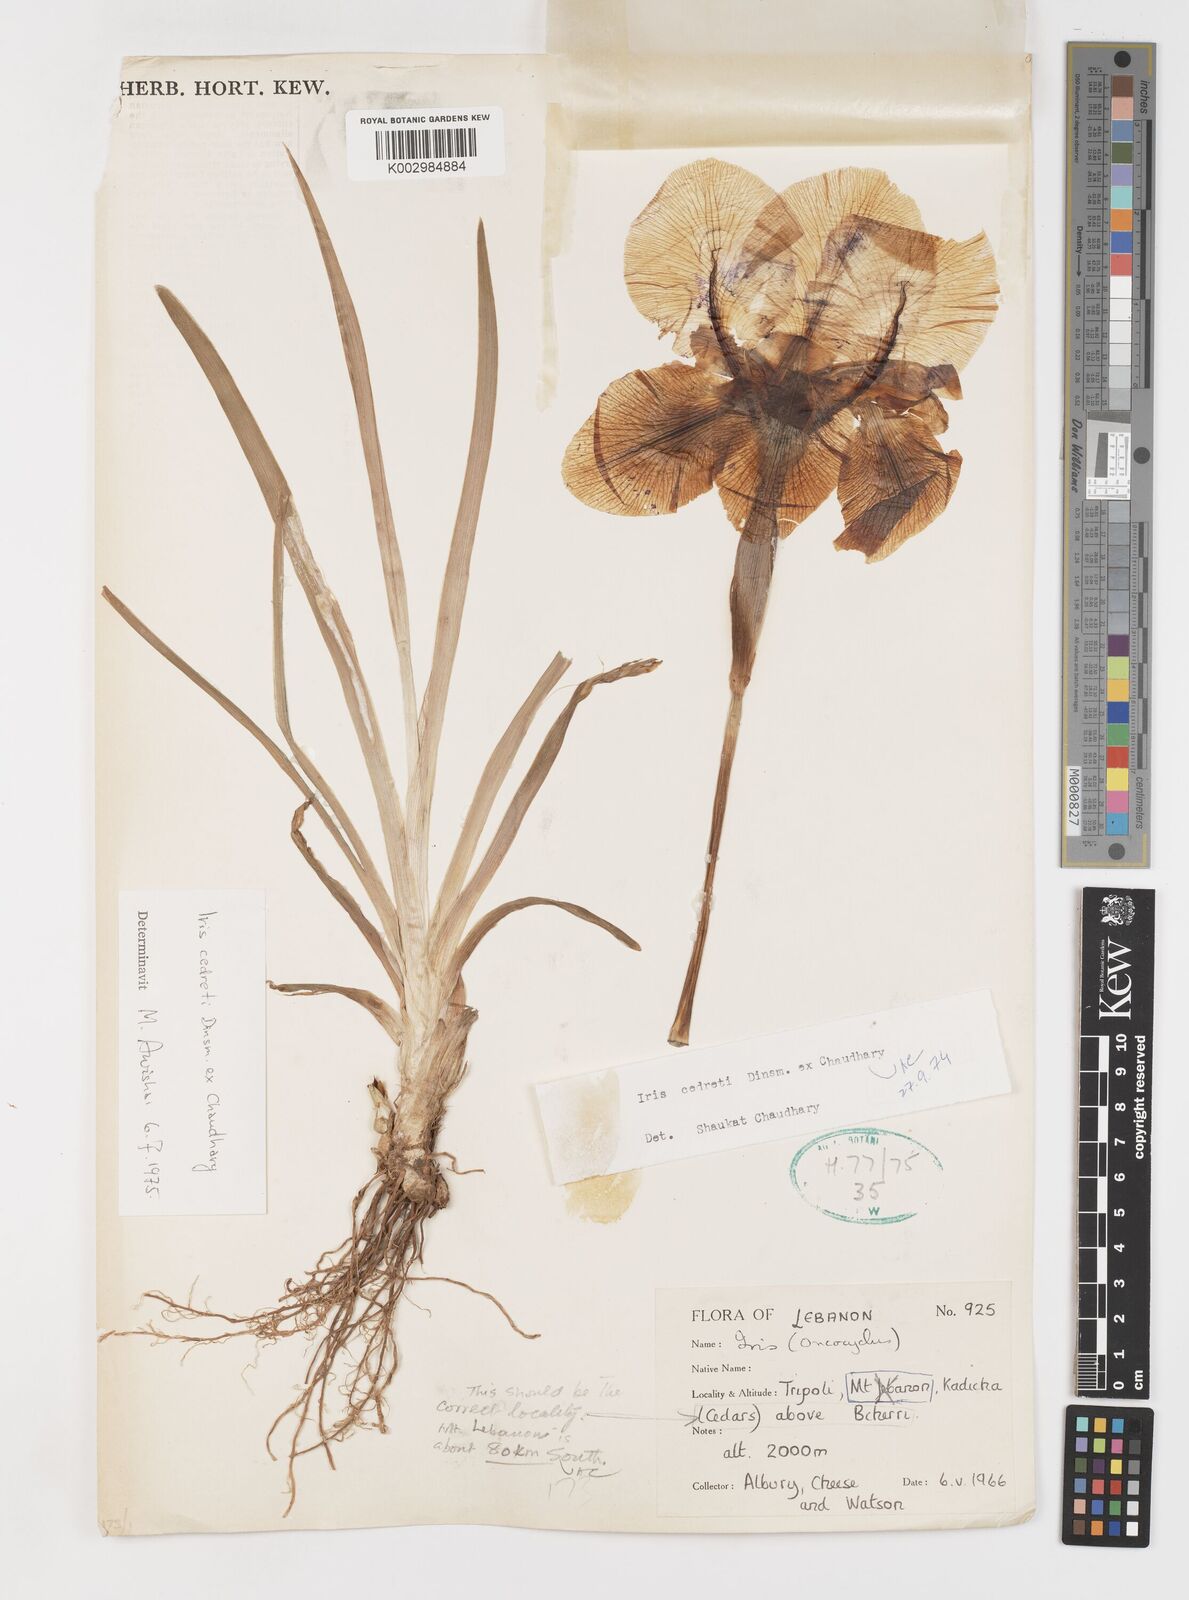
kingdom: Plantae
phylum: Tracheophyta
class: Liliopsida
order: Asparagales
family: Iridaceae
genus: Iris
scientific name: Iris cedreti
